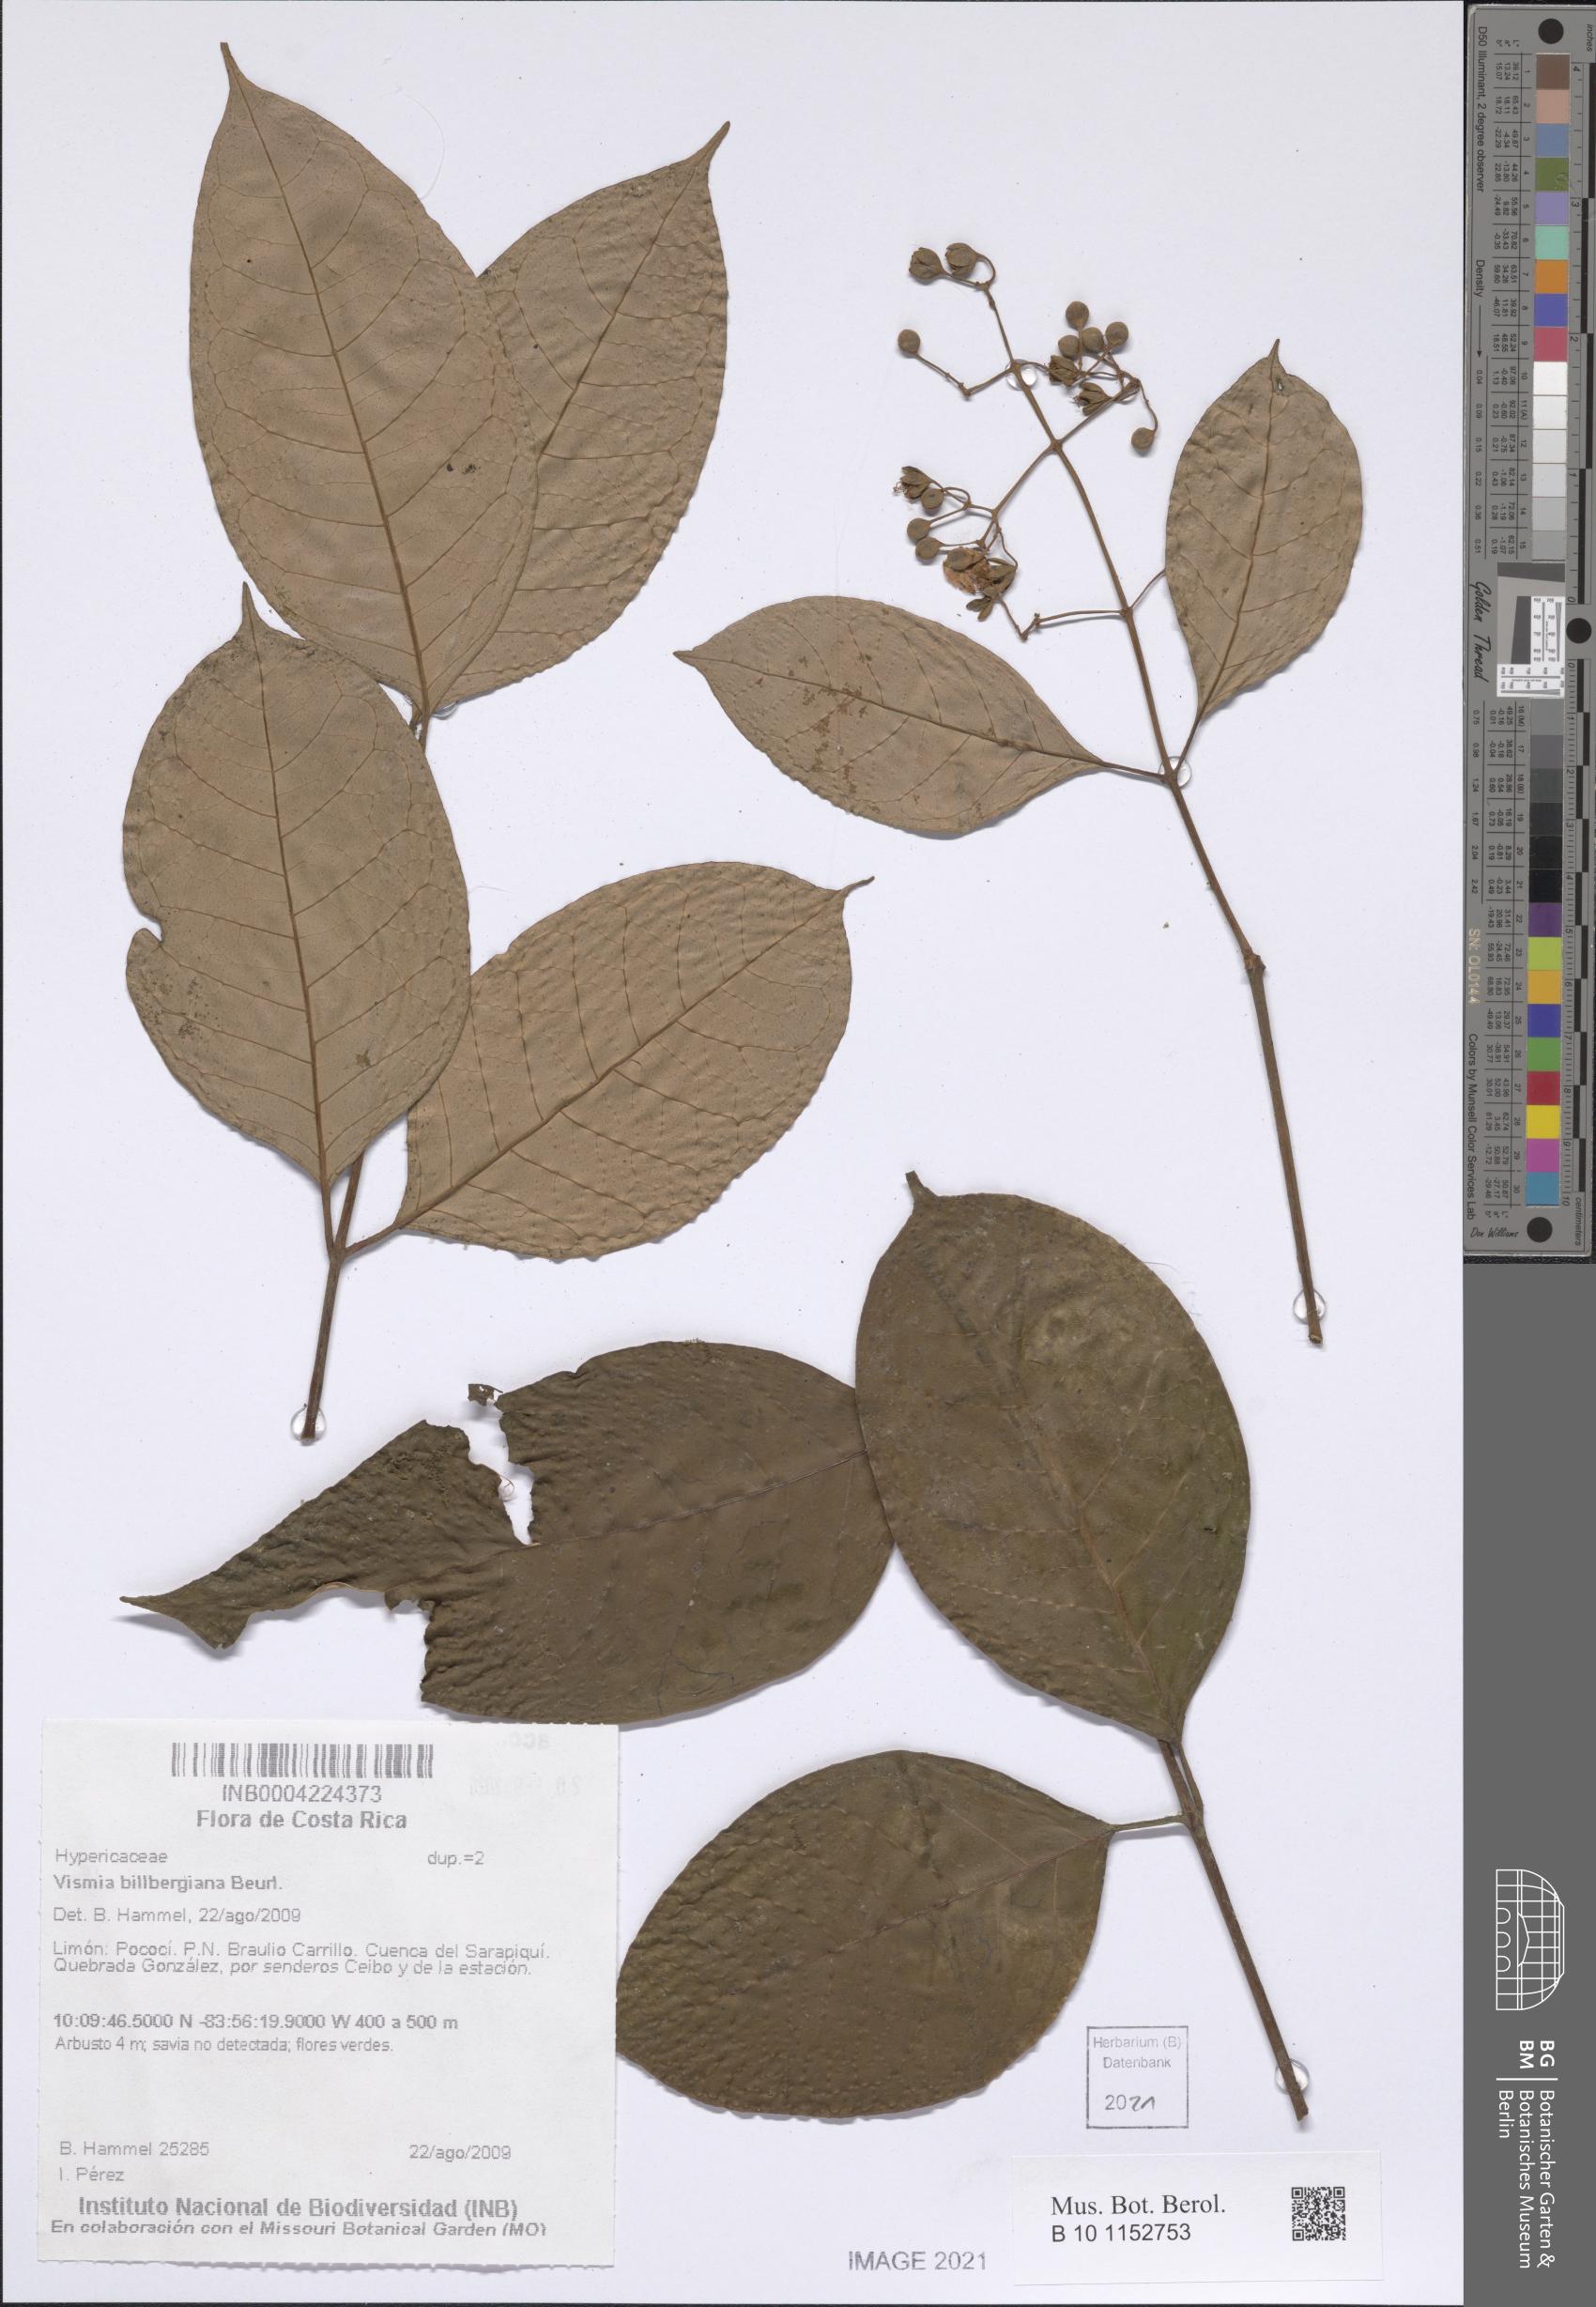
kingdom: Plantae
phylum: Tracheophyta
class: Magnoliopsida
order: Malpighiales
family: Hypericaceae
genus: Vismia
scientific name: Vismia billbergiana
